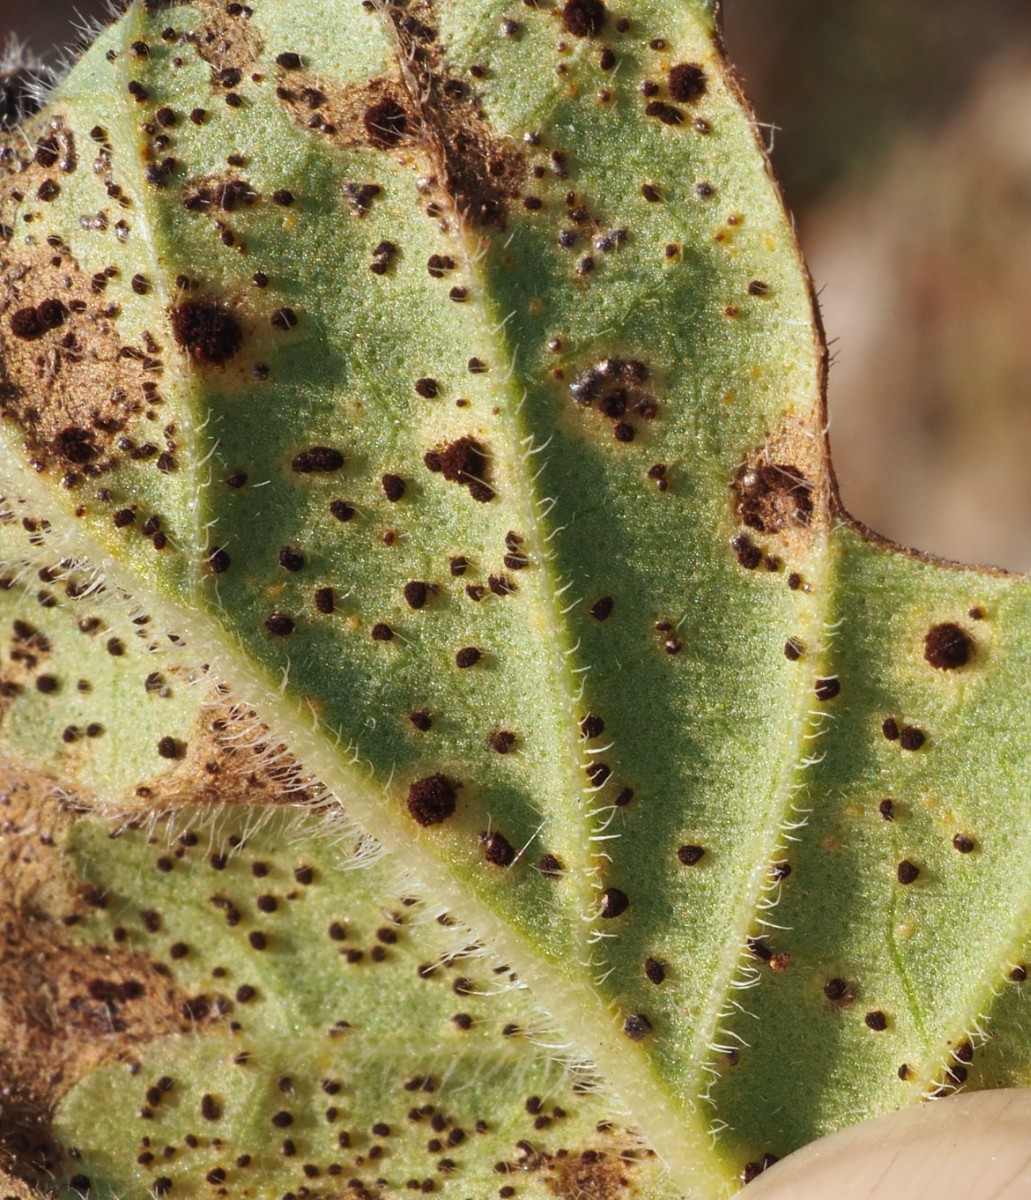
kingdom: Fungi
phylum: Basidiomycota
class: Pucciniomycetes
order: Pucciniales
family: Pucciniaceae
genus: Puccinia
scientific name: Puccinia menthae
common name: Mint rust
